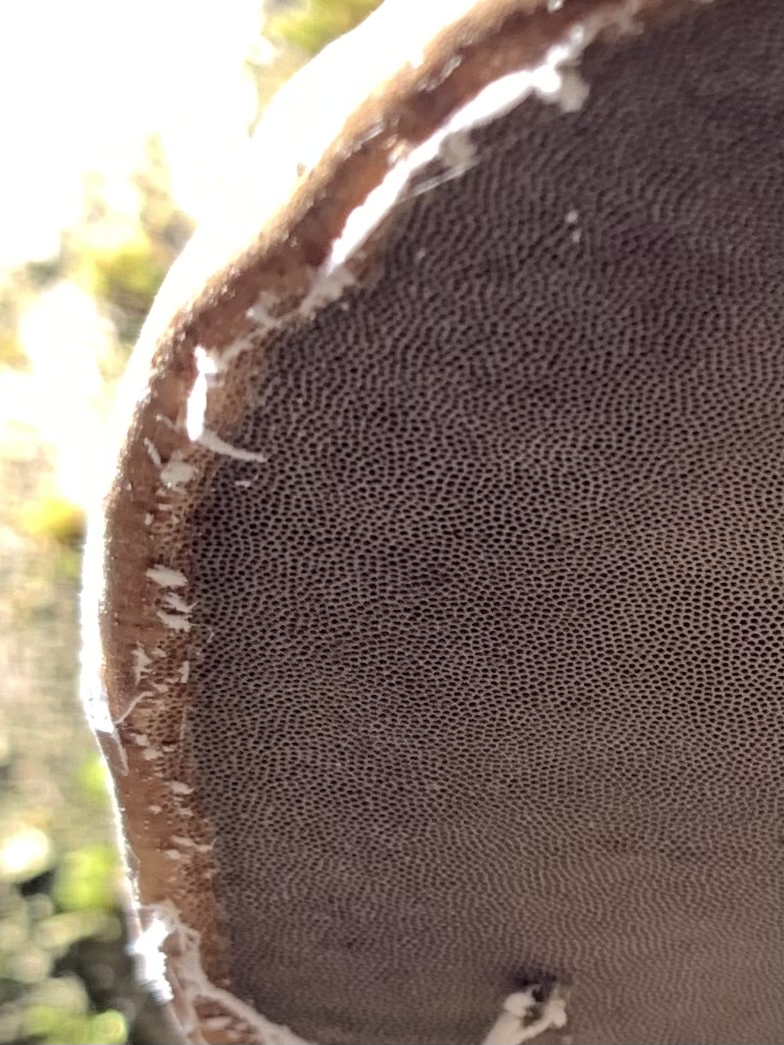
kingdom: Fungi
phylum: Basidiomycota
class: Agaricomycetes
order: Polyporales
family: Polyporaceae
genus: Fomes
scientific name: Fomes fomentarius
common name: tøndersvamp
